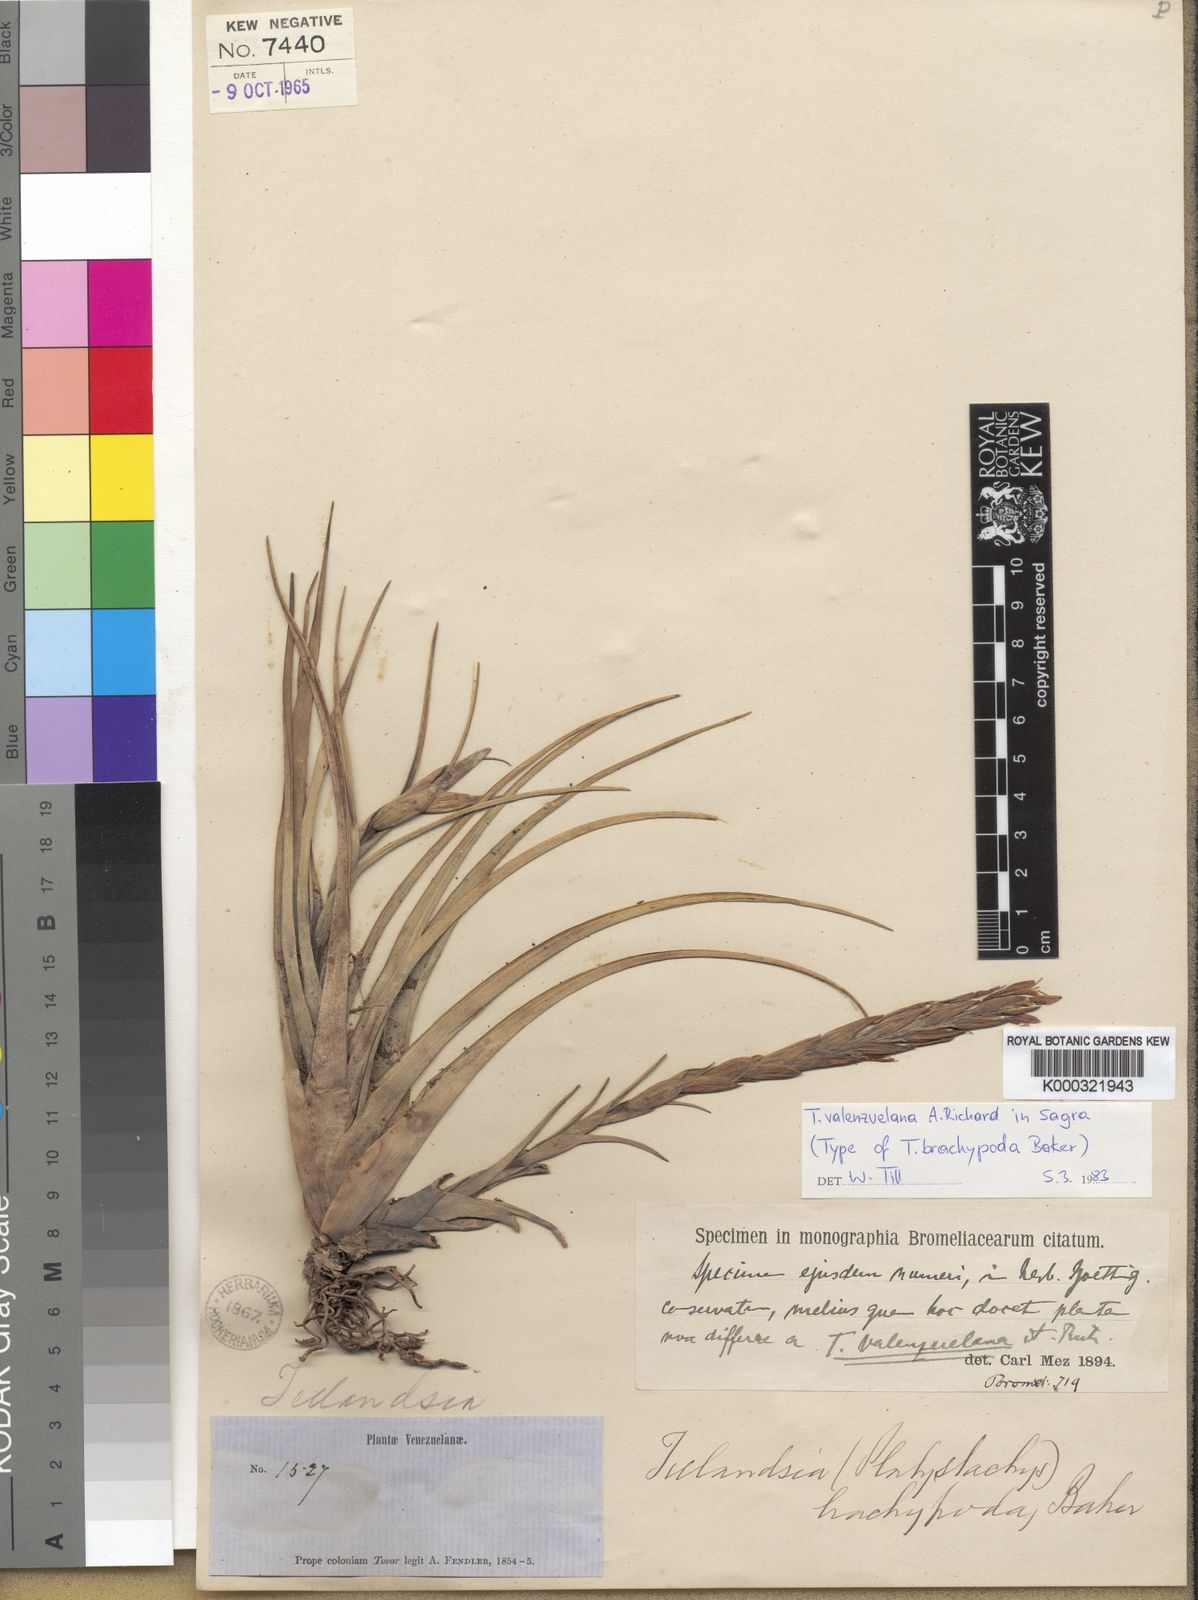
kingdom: Plantae
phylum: Tracheophyta
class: Liliopsida
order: Poales
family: Bromeliaceae
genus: Tillandsia
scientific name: Tillandsia variabilis
